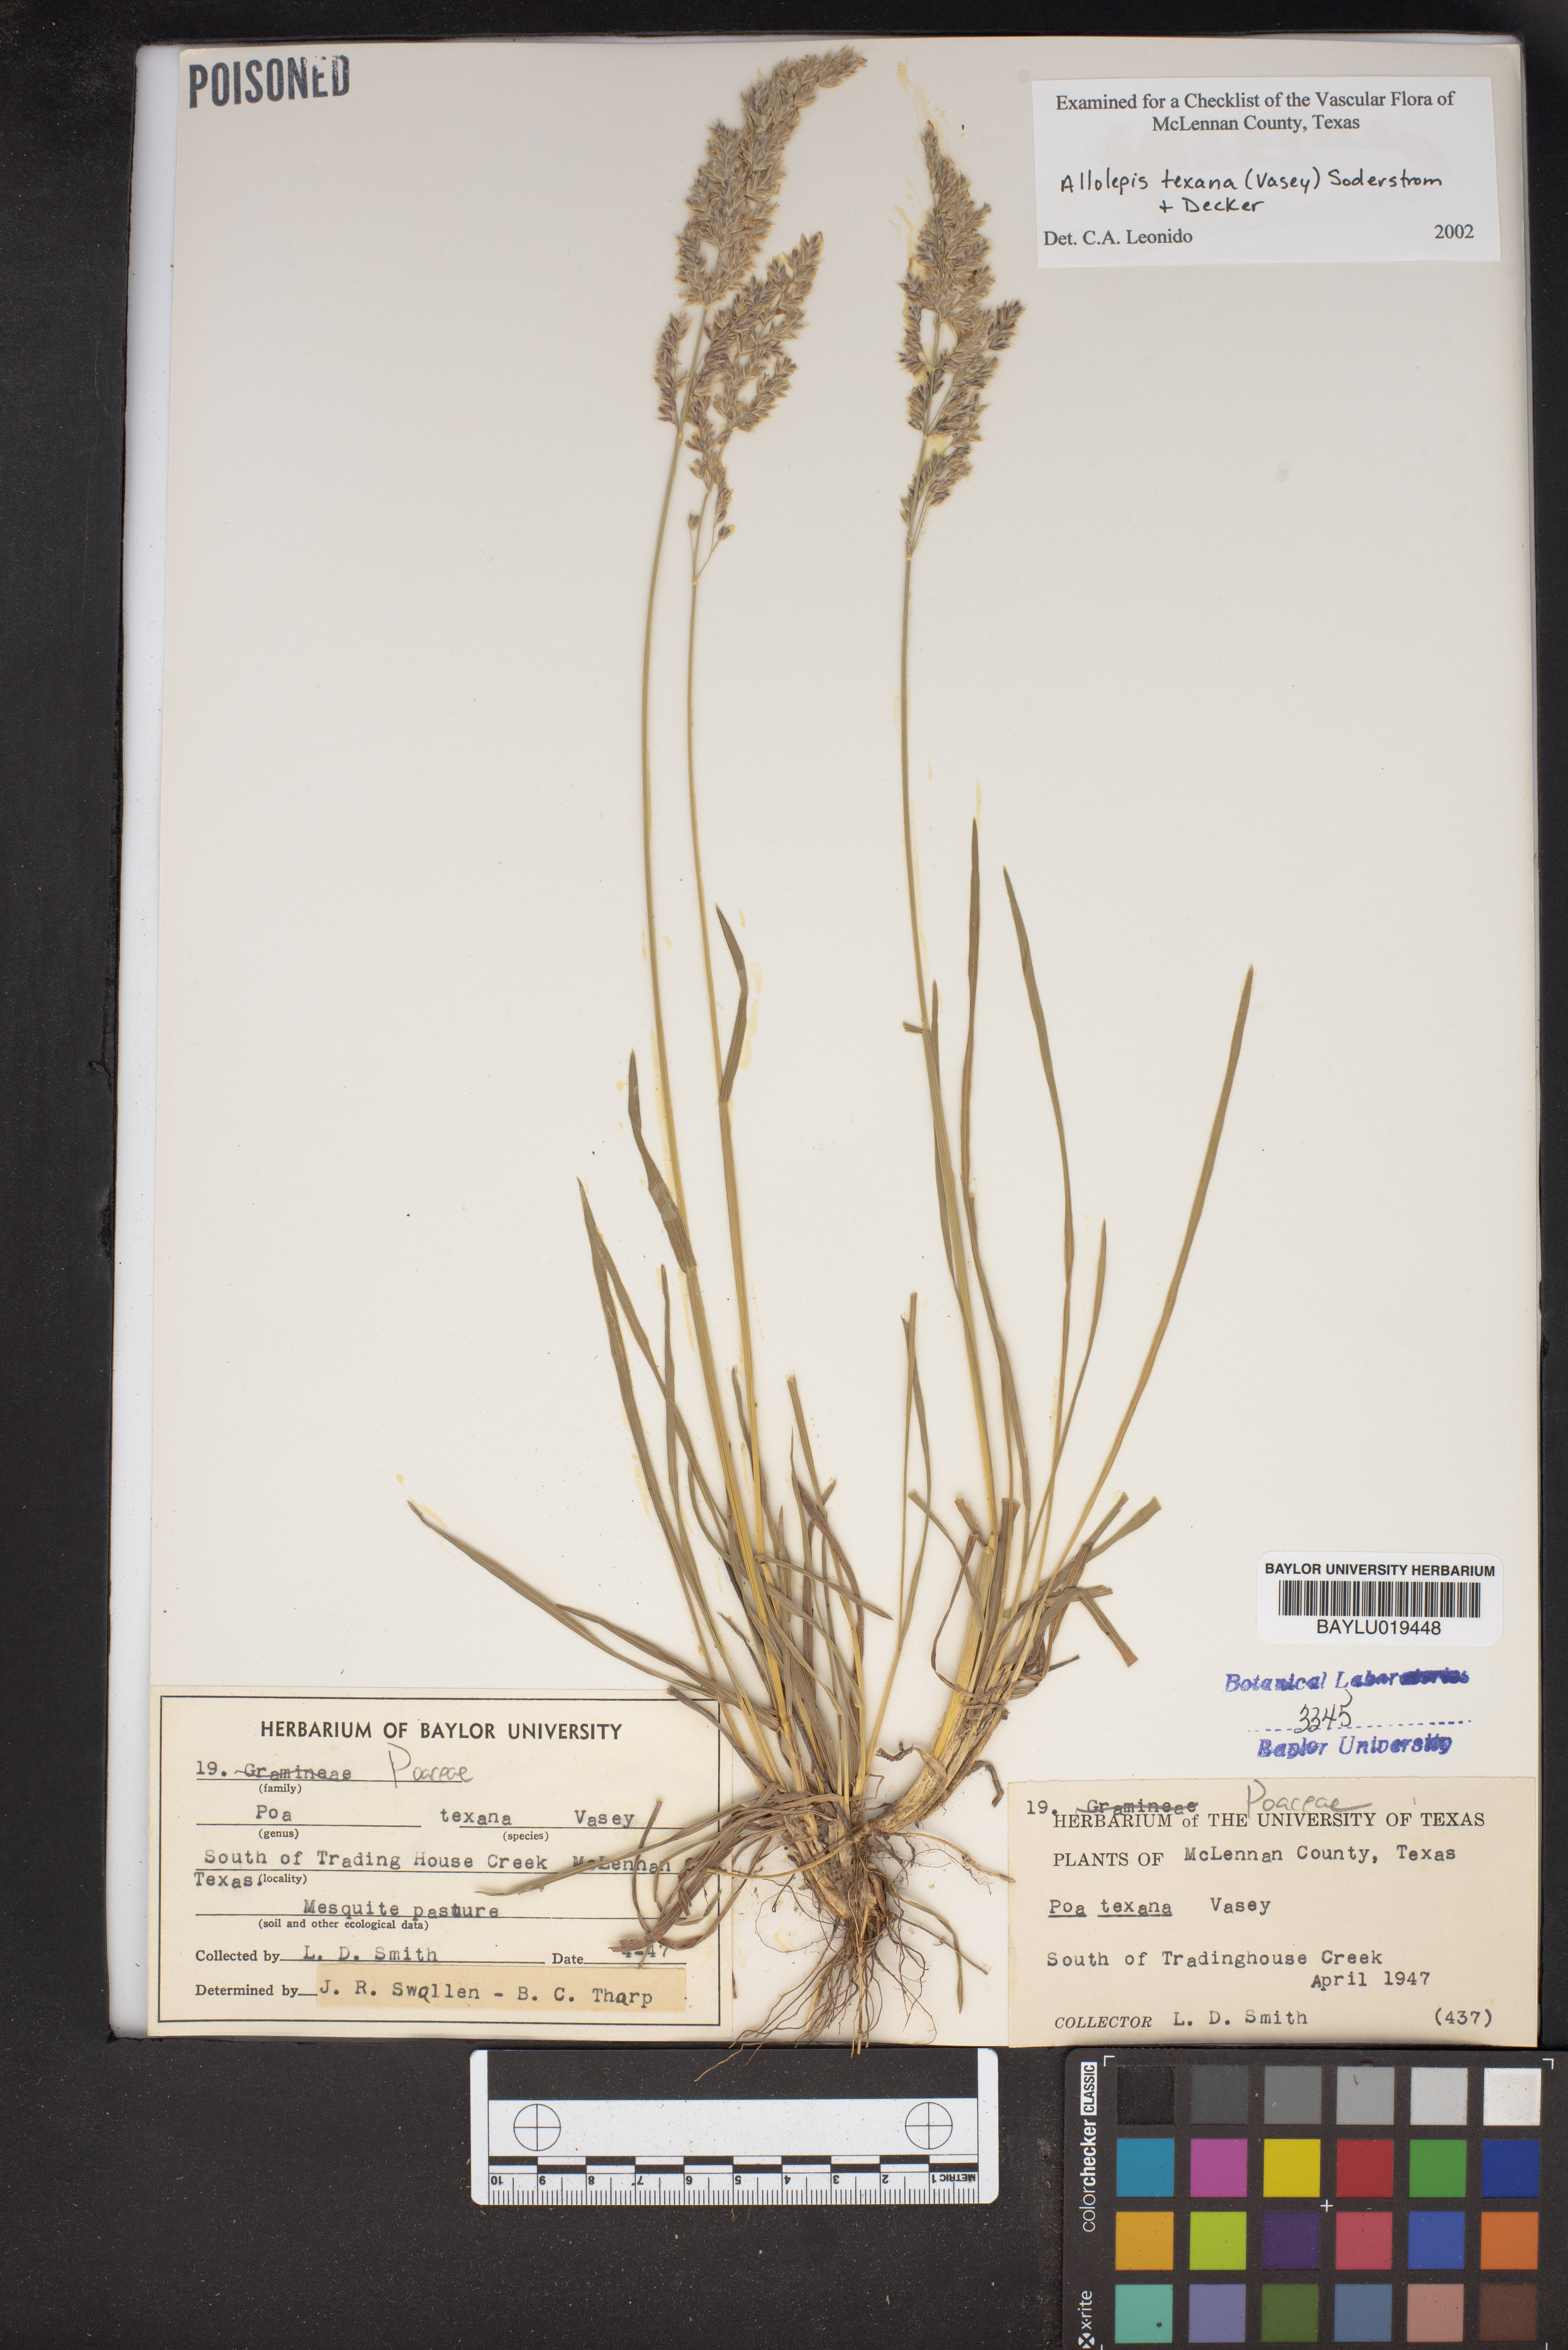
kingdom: Plantae
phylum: Tracheophyta
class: Liliopsida
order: Poales
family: Poaceae
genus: Allolepis
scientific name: Allolepis texana
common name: False salt grass
